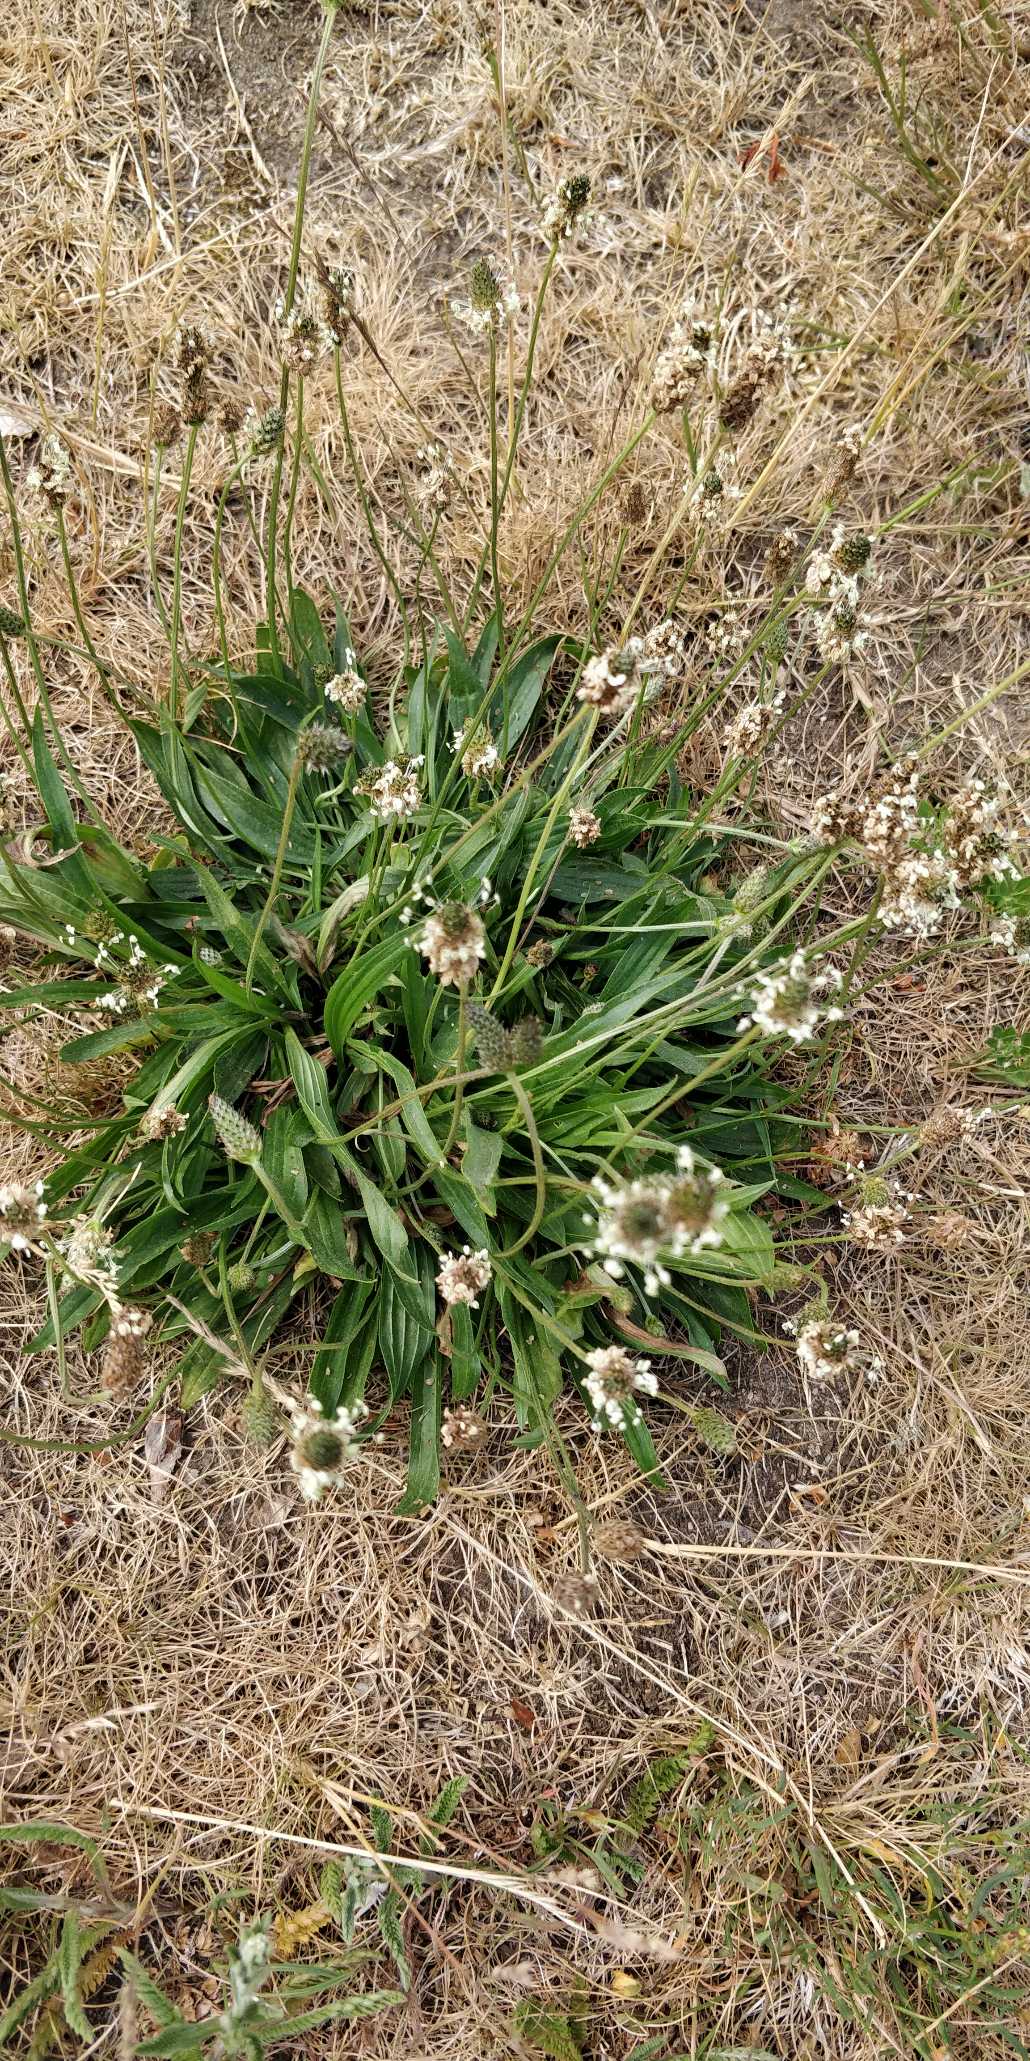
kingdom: Plantae
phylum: Tracheophyta
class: Magnoliopsida
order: Lamiales
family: Plantaginaceae
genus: Plantago
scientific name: Plantago lanceolata
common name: Lancet-vejbred
